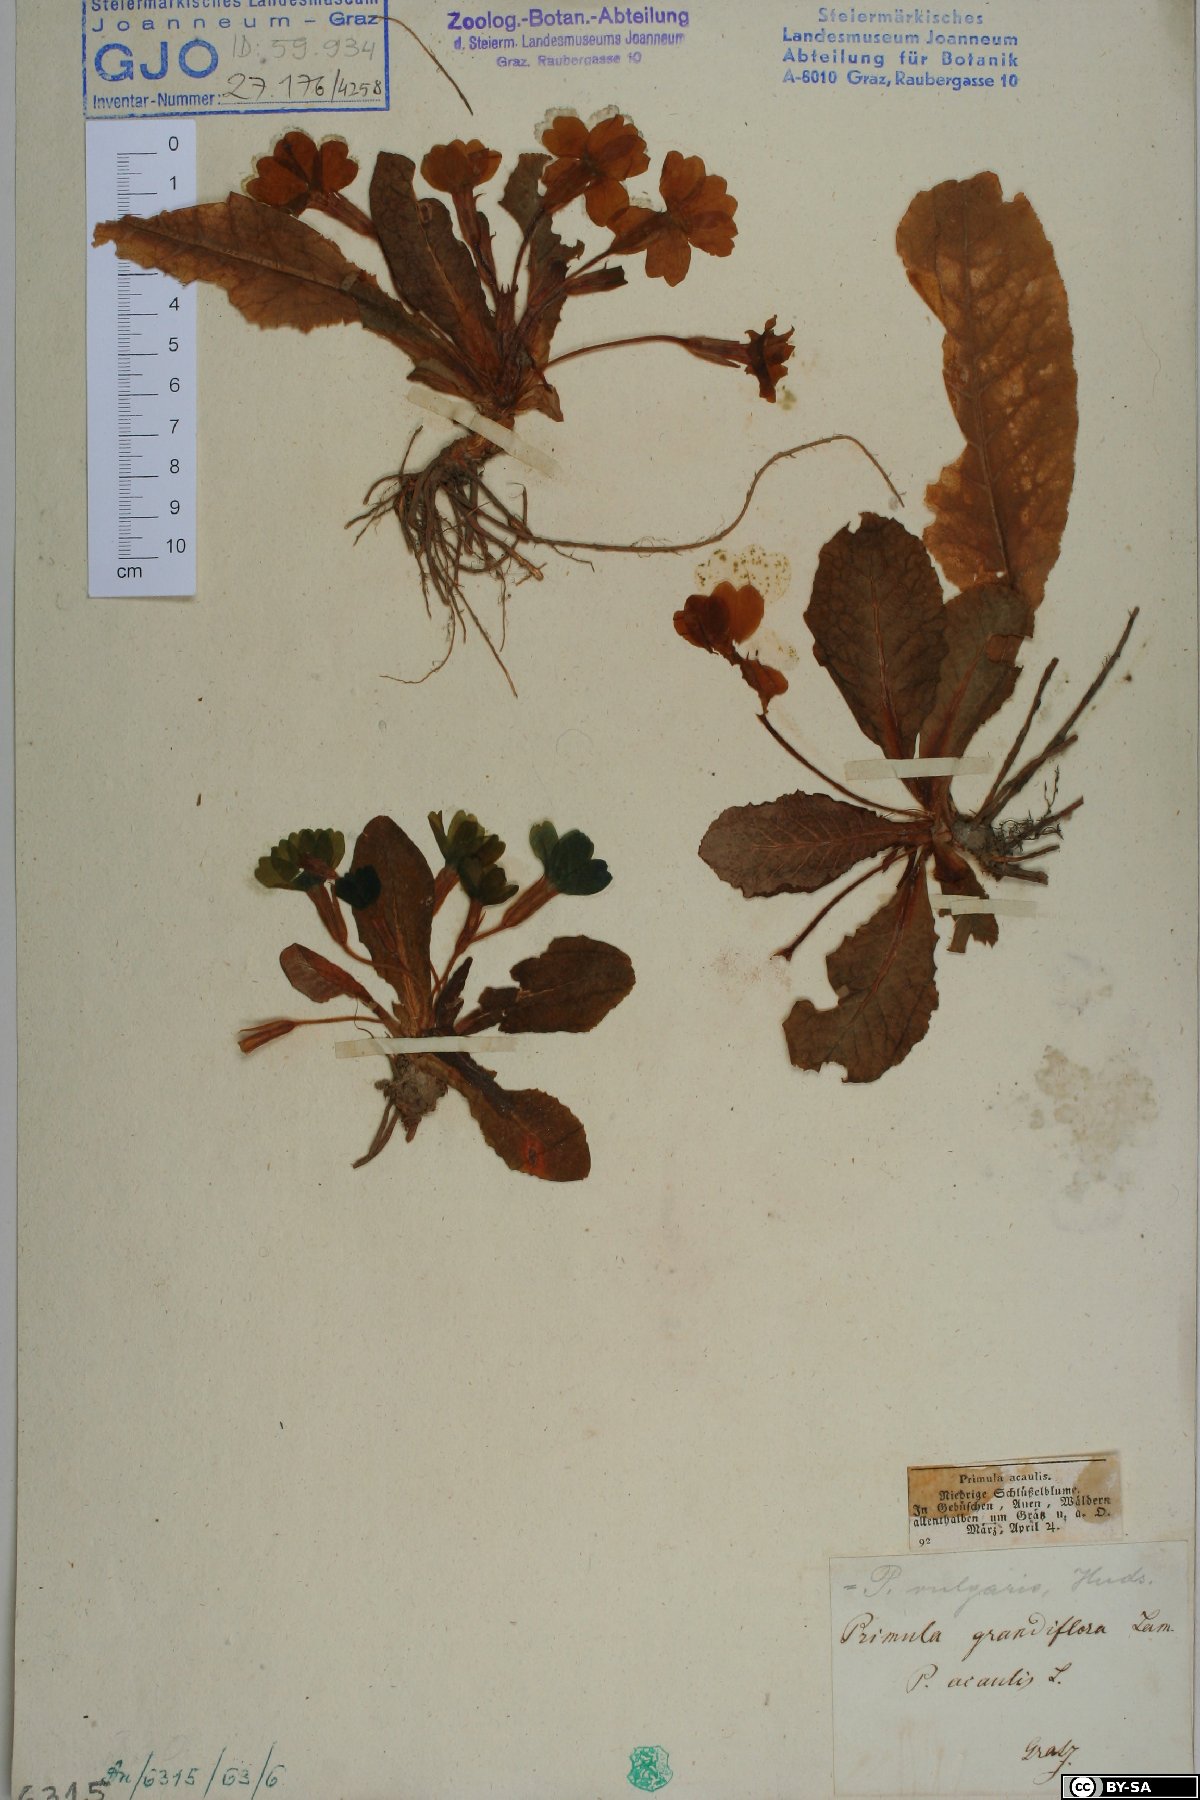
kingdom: Plantae
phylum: Tracheophyta
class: Magnoliopsida
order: Ericales
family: Primulaceae
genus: Primula
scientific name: Primula vulgaris
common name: Primrose
